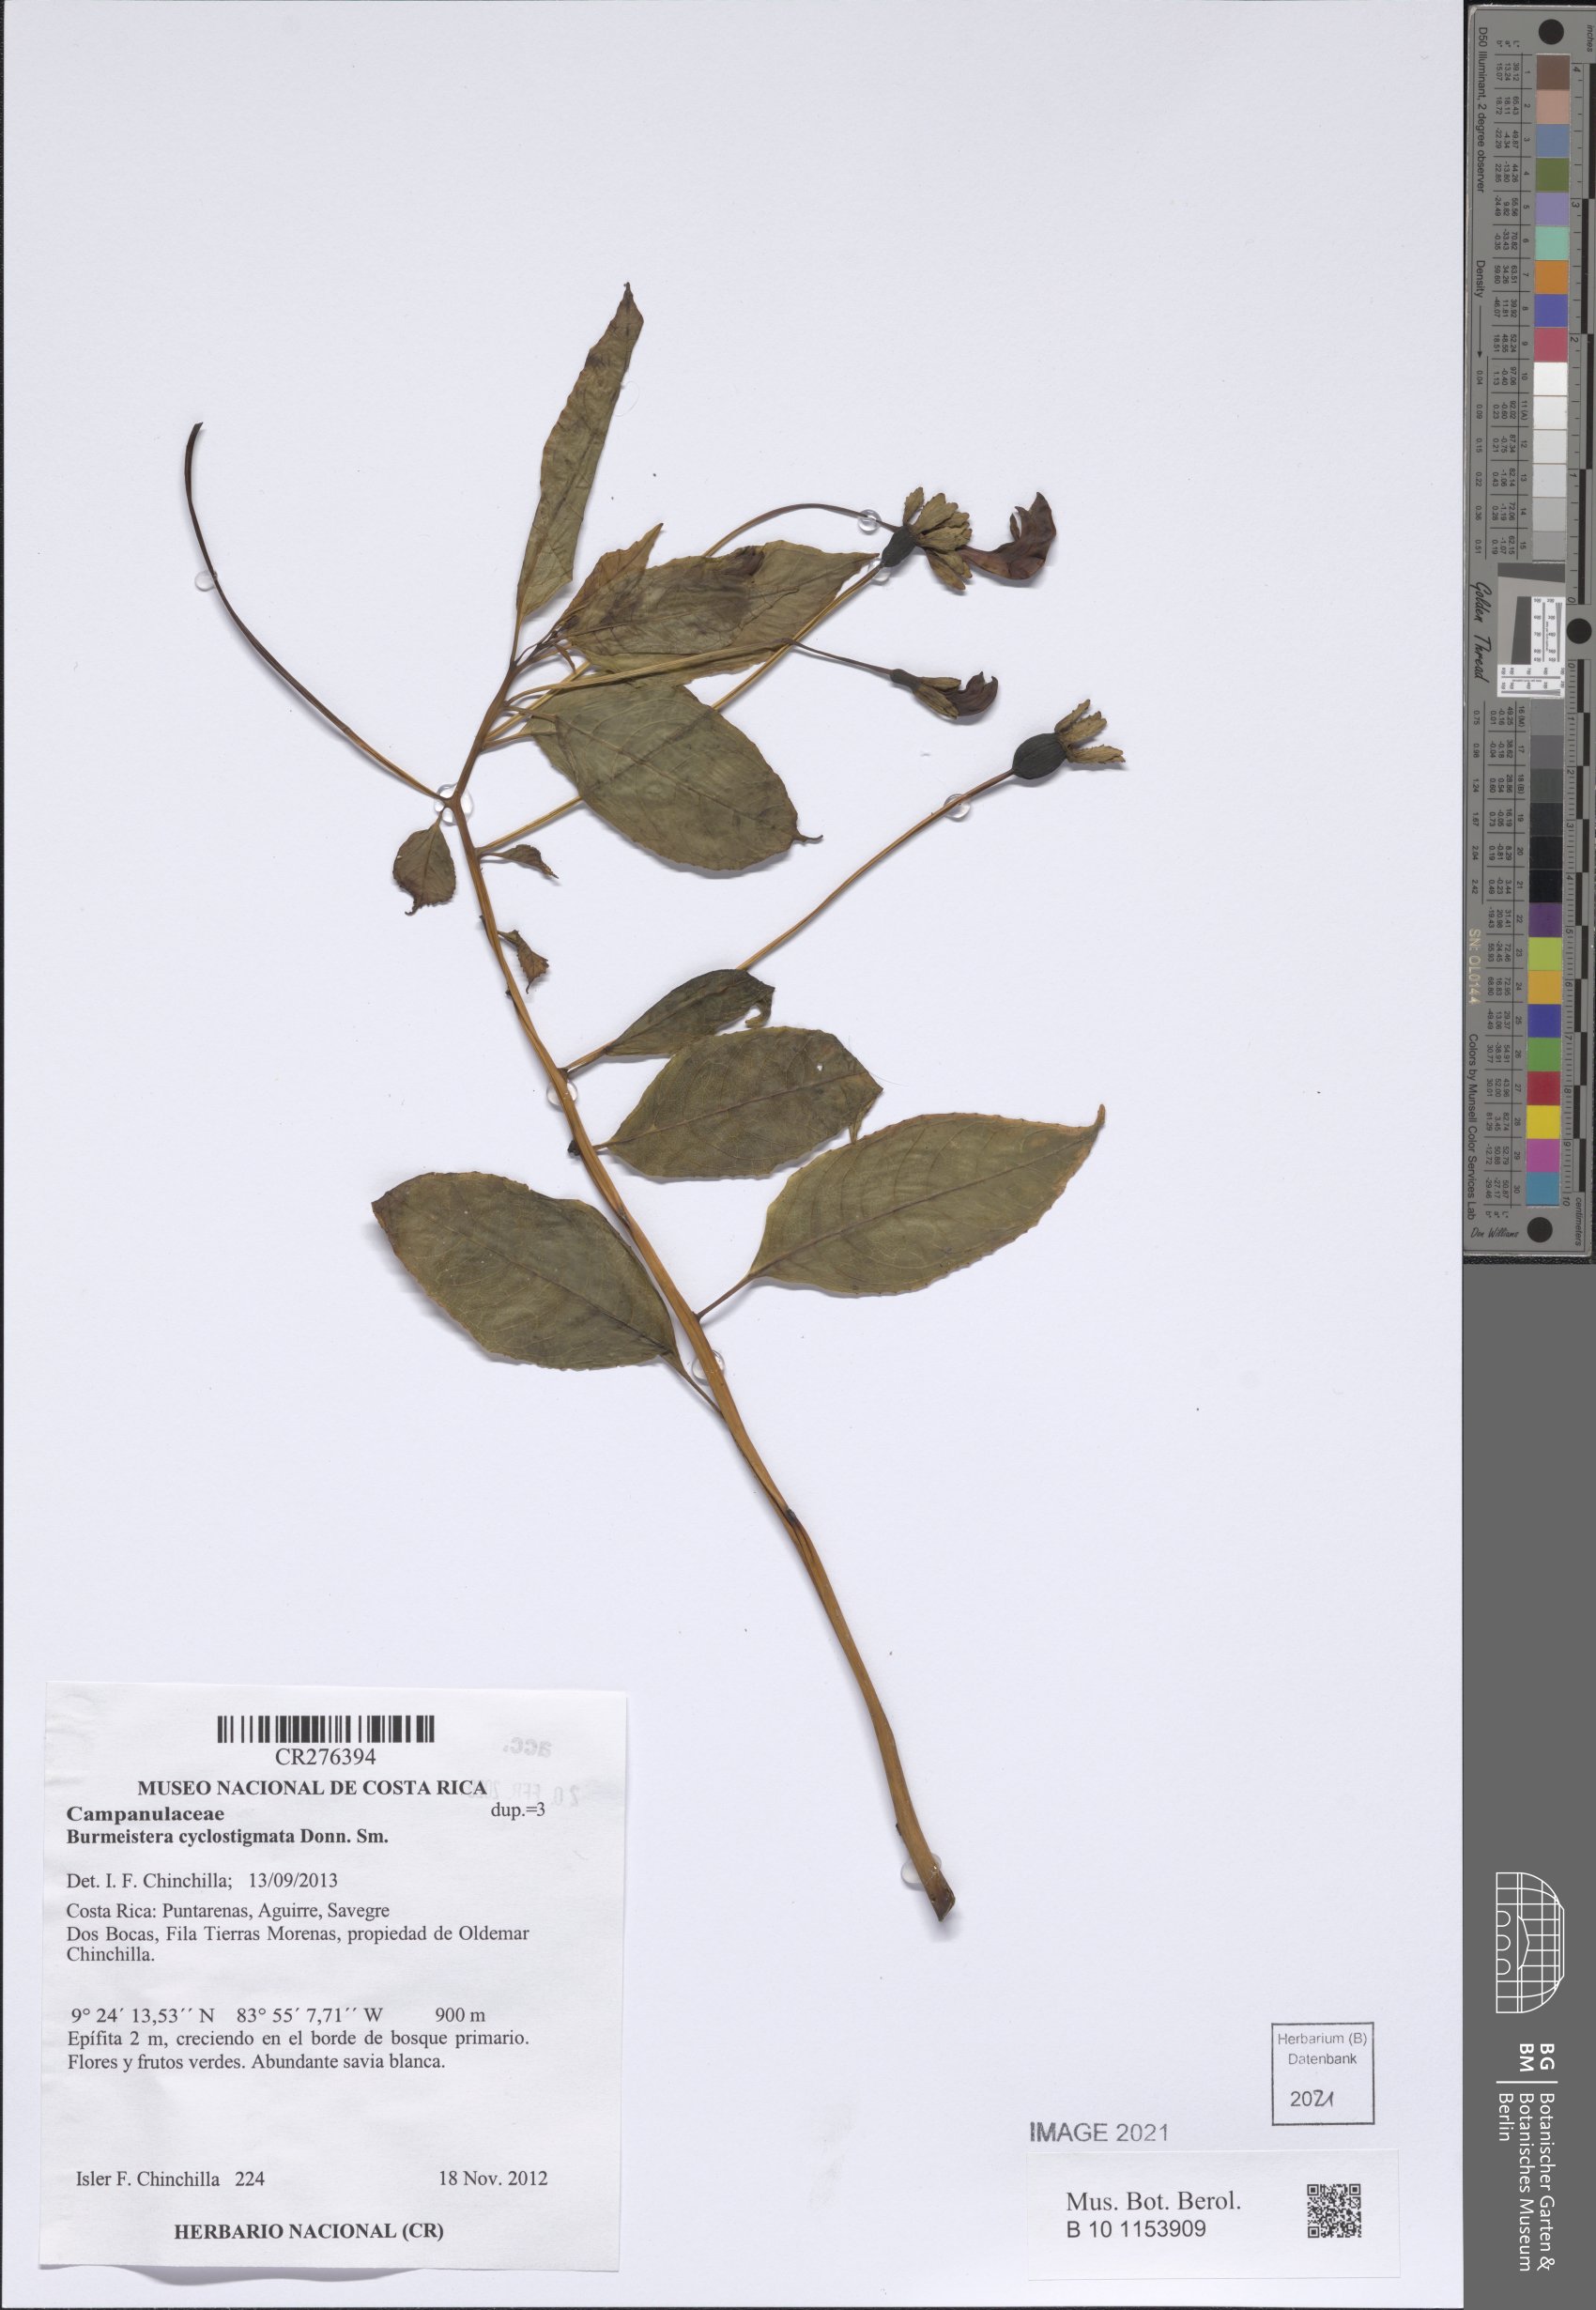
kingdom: Plantae
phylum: Tracheophyta
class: Magnoliopsida
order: Asterales
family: Campanulaceae
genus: Burmeistera
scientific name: Burmeistera cyclostigmata
